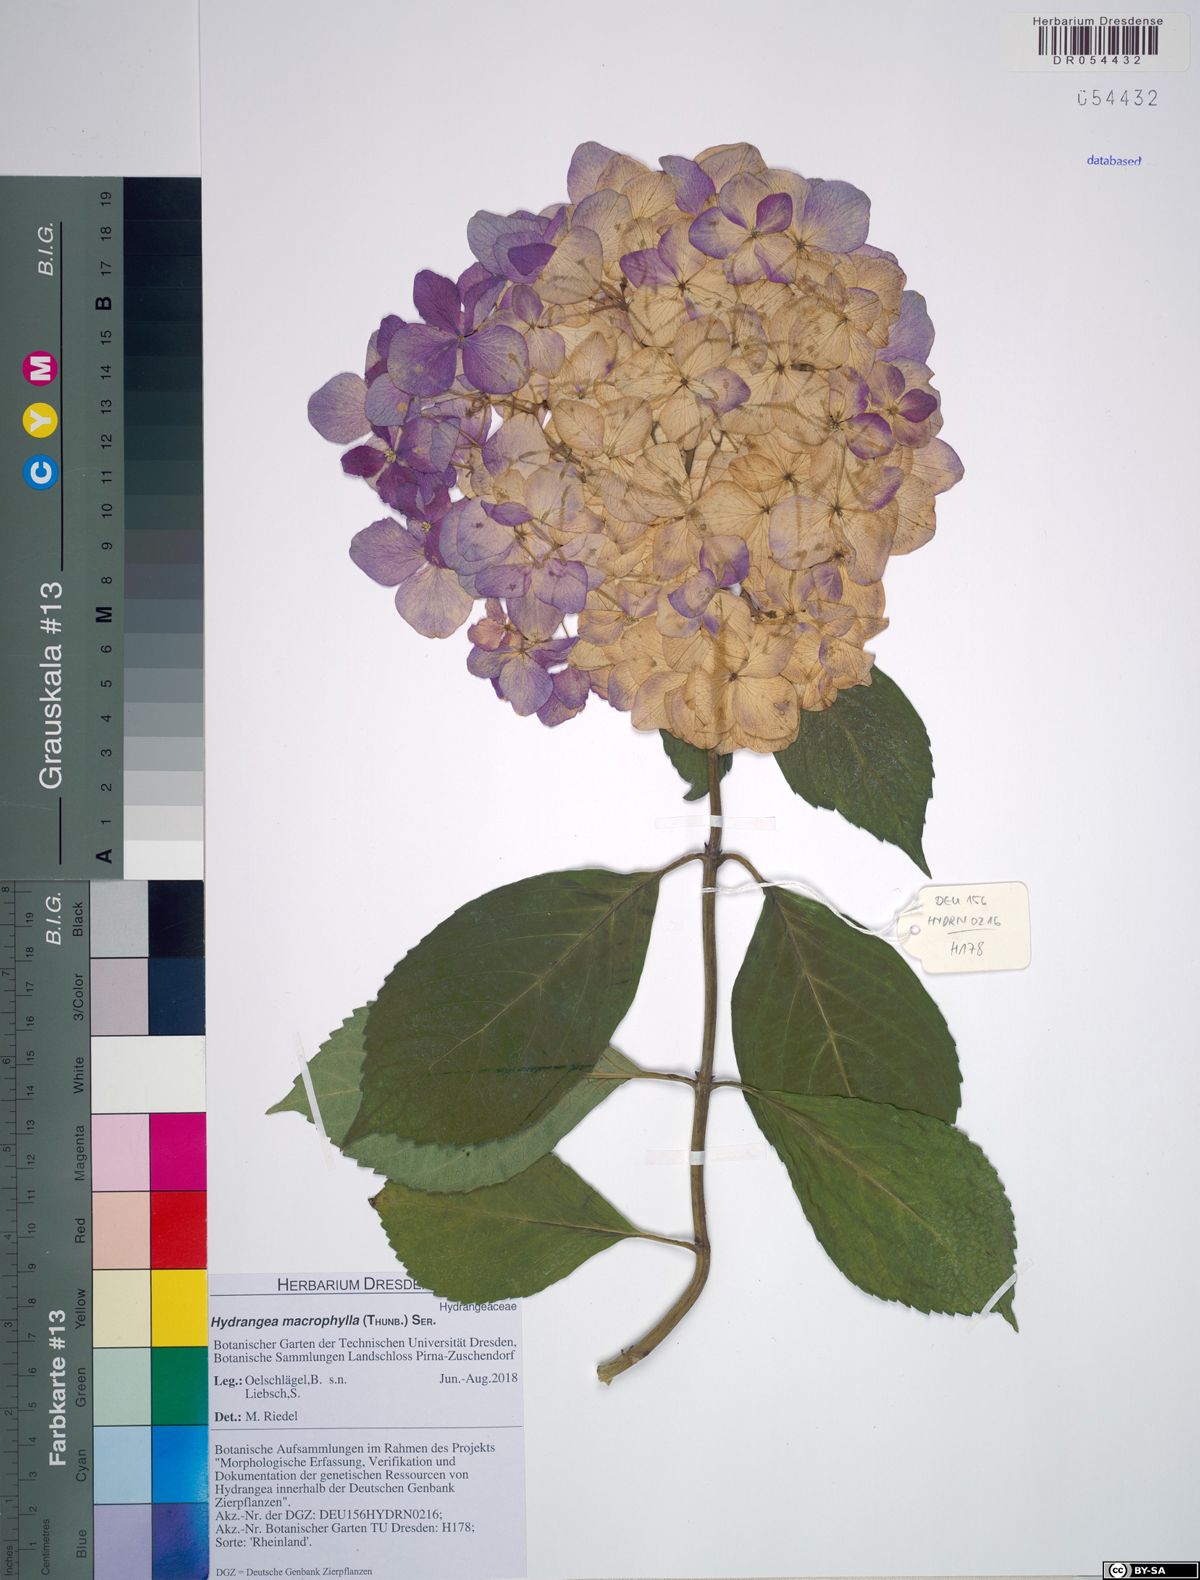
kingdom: Plantae
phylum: Tracheophyta
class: Magnoliopsida
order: Cornales
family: Hydrangeaceae
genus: Hydrangea
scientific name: Hydrangea macrophylla
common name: Hydrangea
